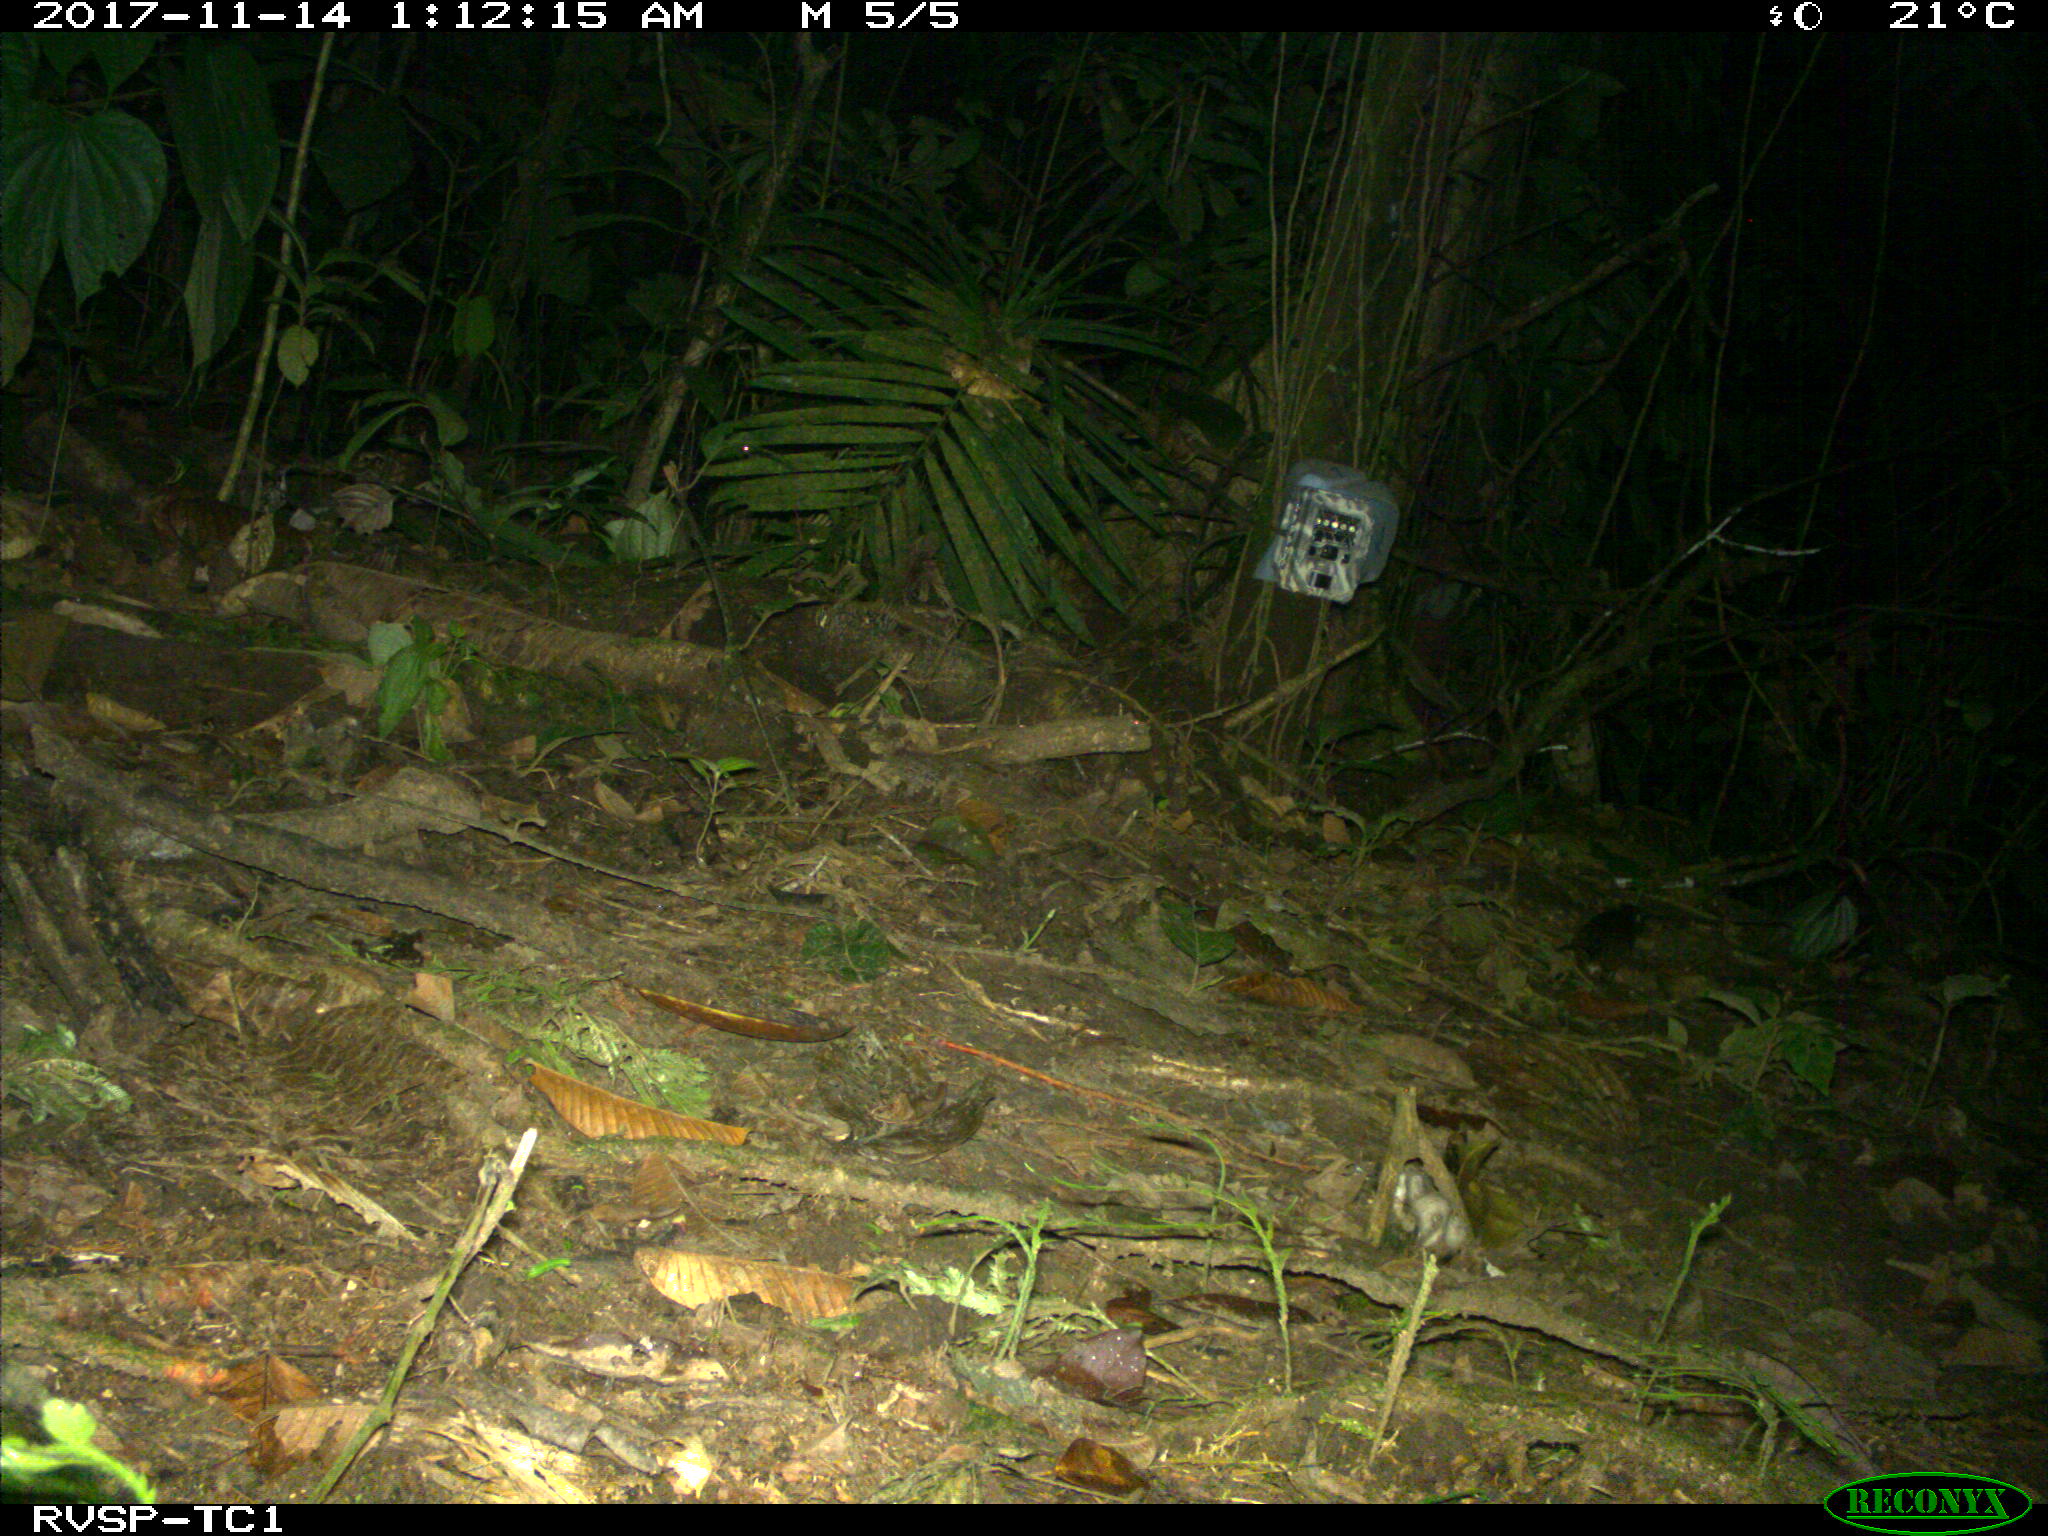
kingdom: Animalia
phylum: Chordata
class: Mammalia
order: Rodentia
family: Echimyidae
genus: Proechimys
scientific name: Proechimys
